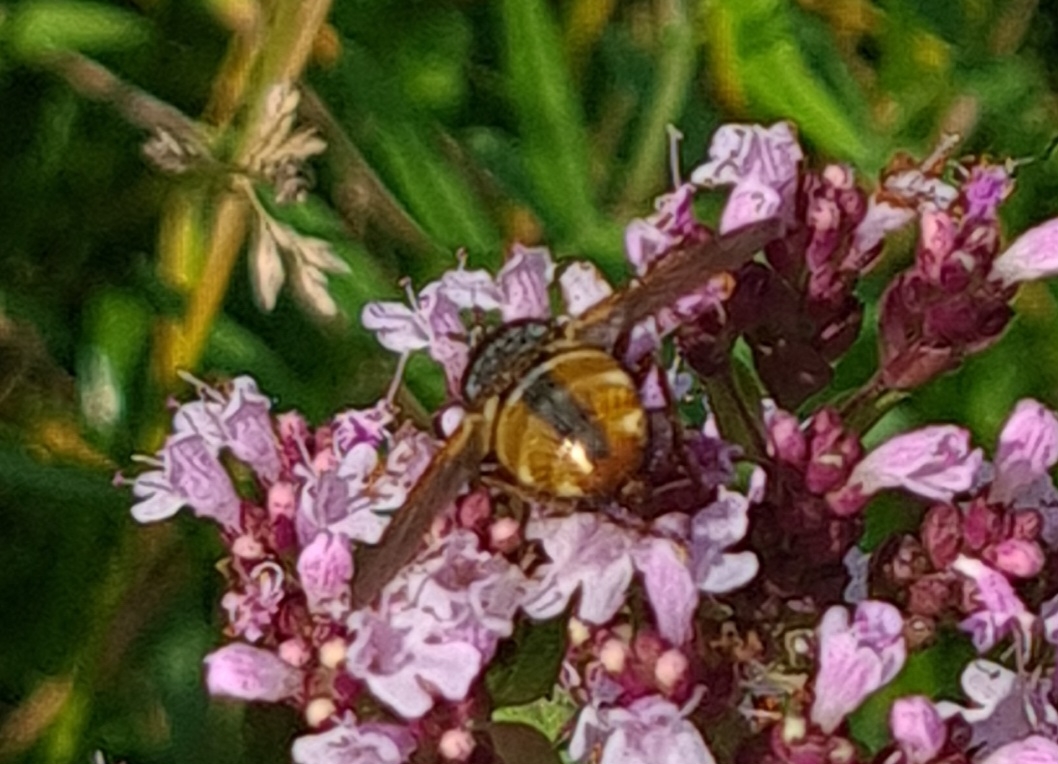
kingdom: Animalia
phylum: Arthropoda
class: Insecta
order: Diptera
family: Tachinidae
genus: Tachina
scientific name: Tachina fera
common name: Mellemfluen oskar
